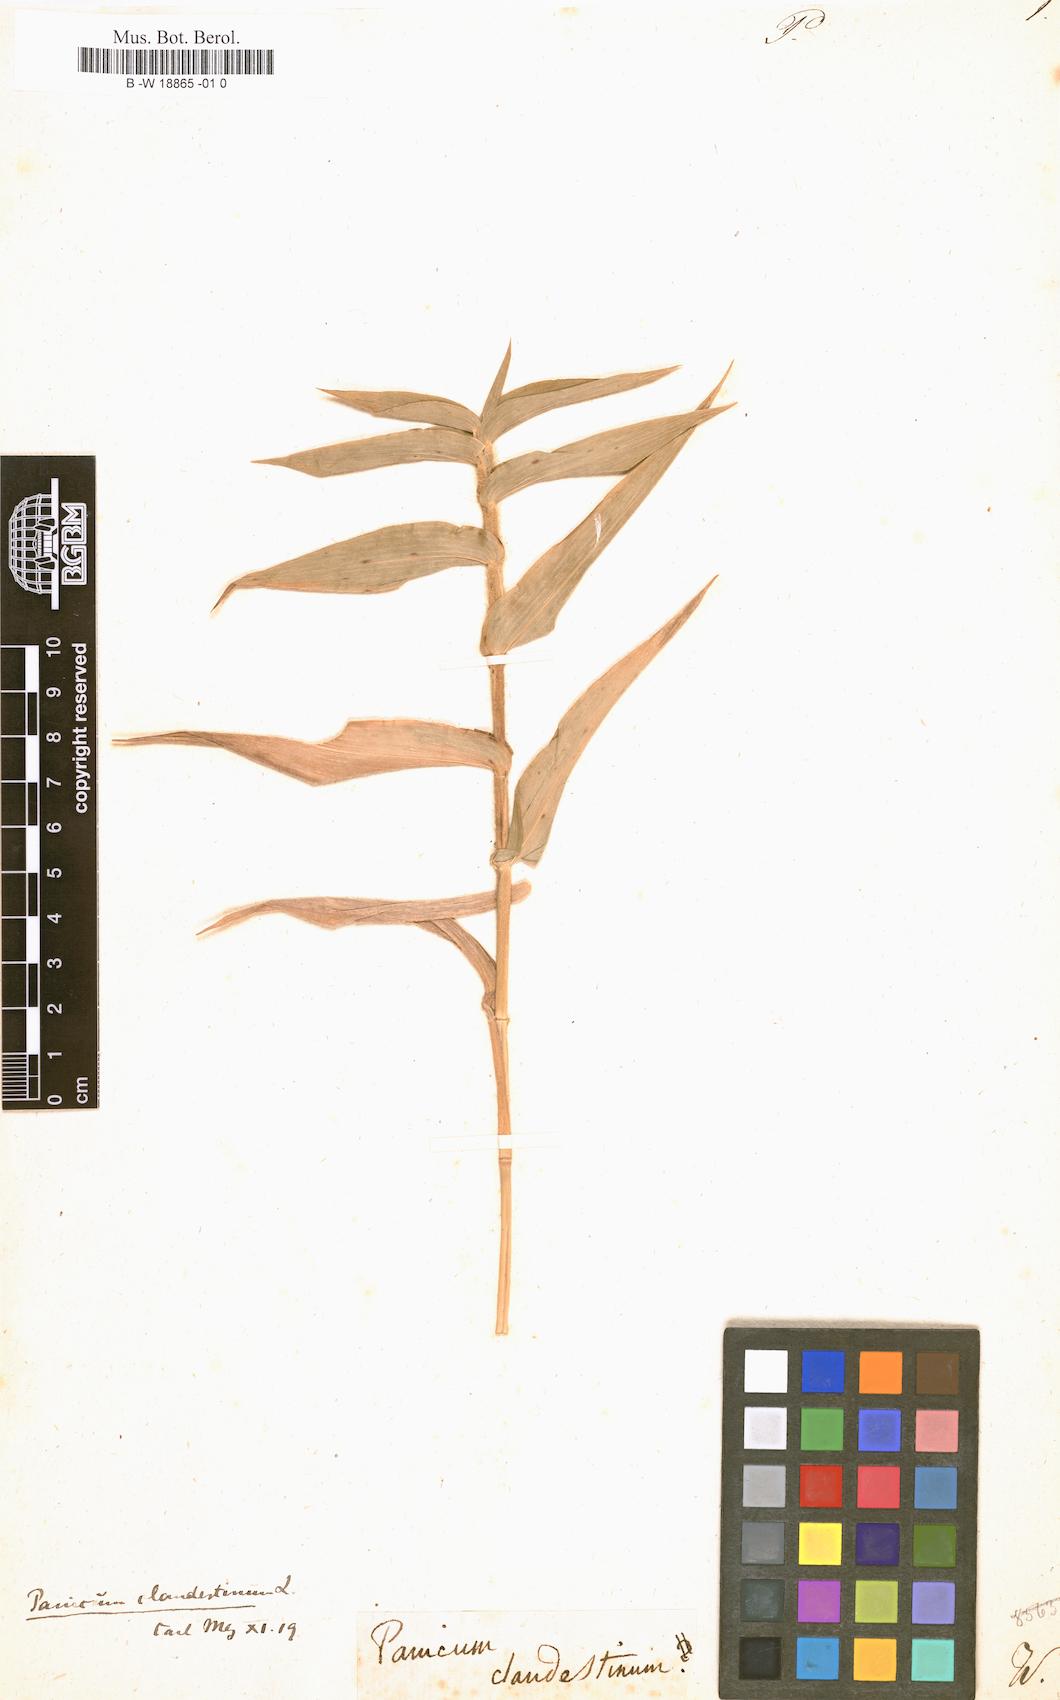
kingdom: Plantae
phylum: Tracheophyta
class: Liliopsida
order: Poales
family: Poaceae
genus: Dichanthelium
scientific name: Dichanthelium clandestinum
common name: Deer-tongue grass
